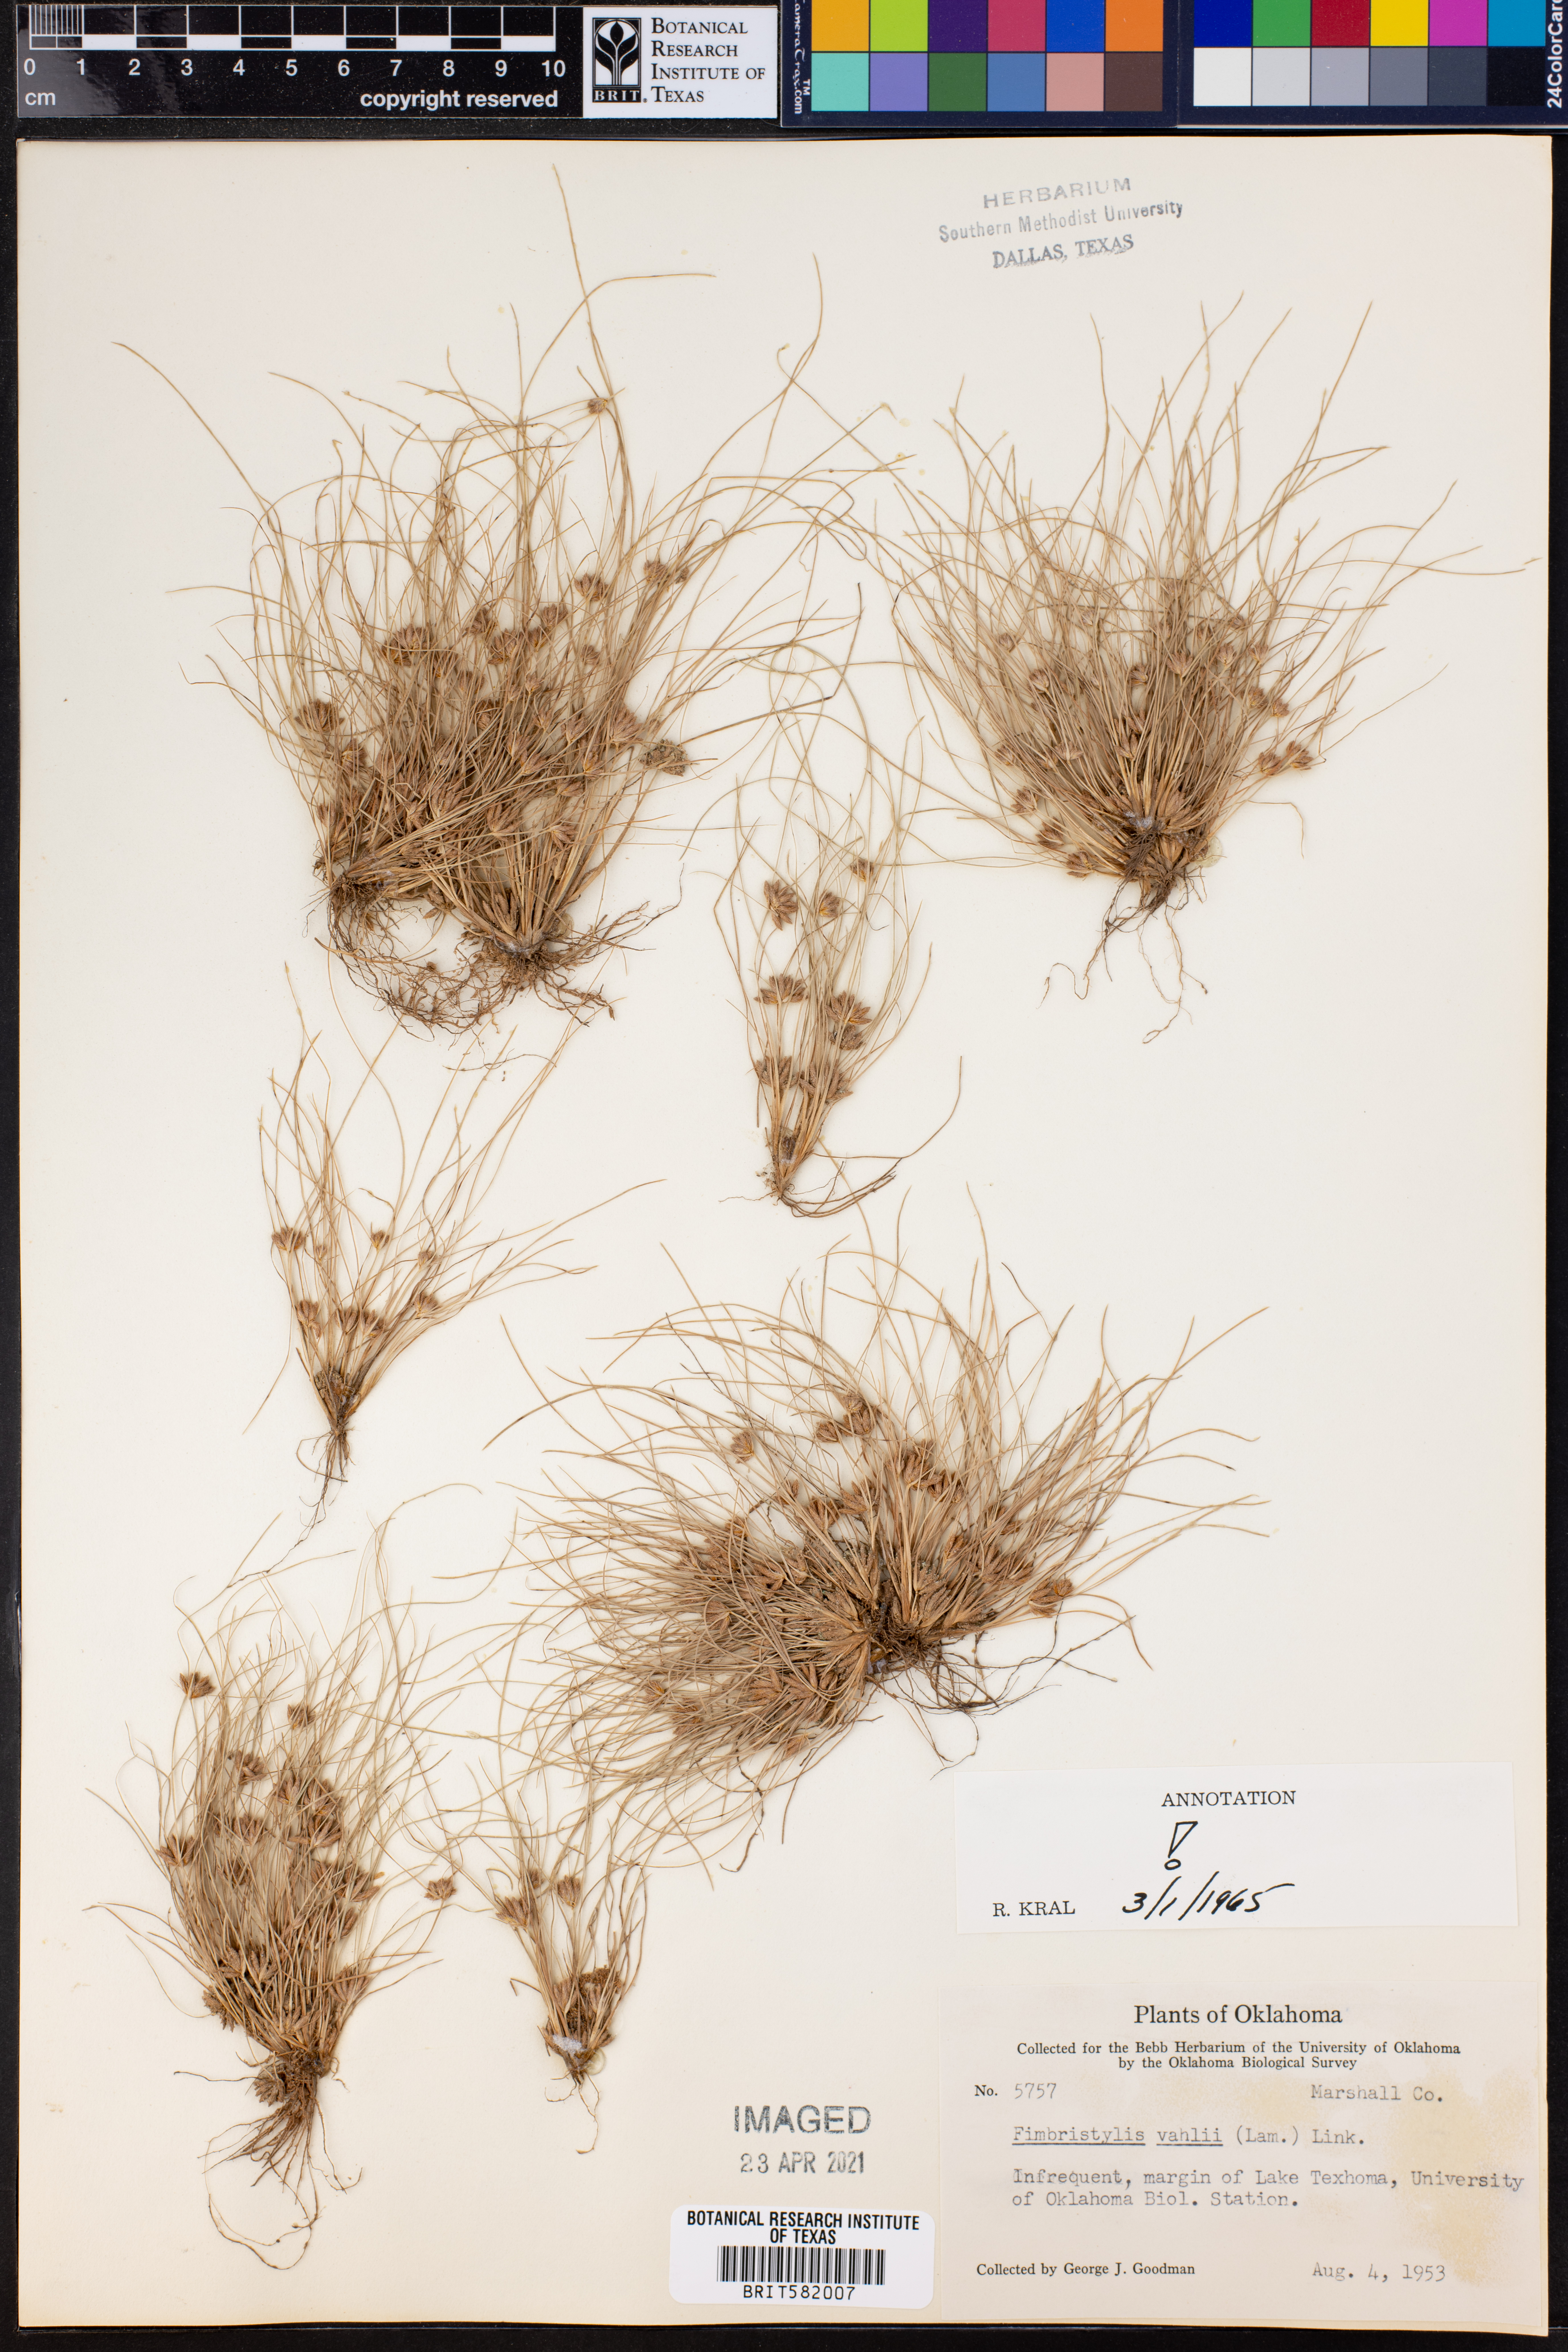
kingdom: Plantae
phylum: Tracheophyta
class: Liliopsida
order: Poales
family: Cyperaceae
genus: Fimbristylis
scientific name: Fimbristylis vahlii
